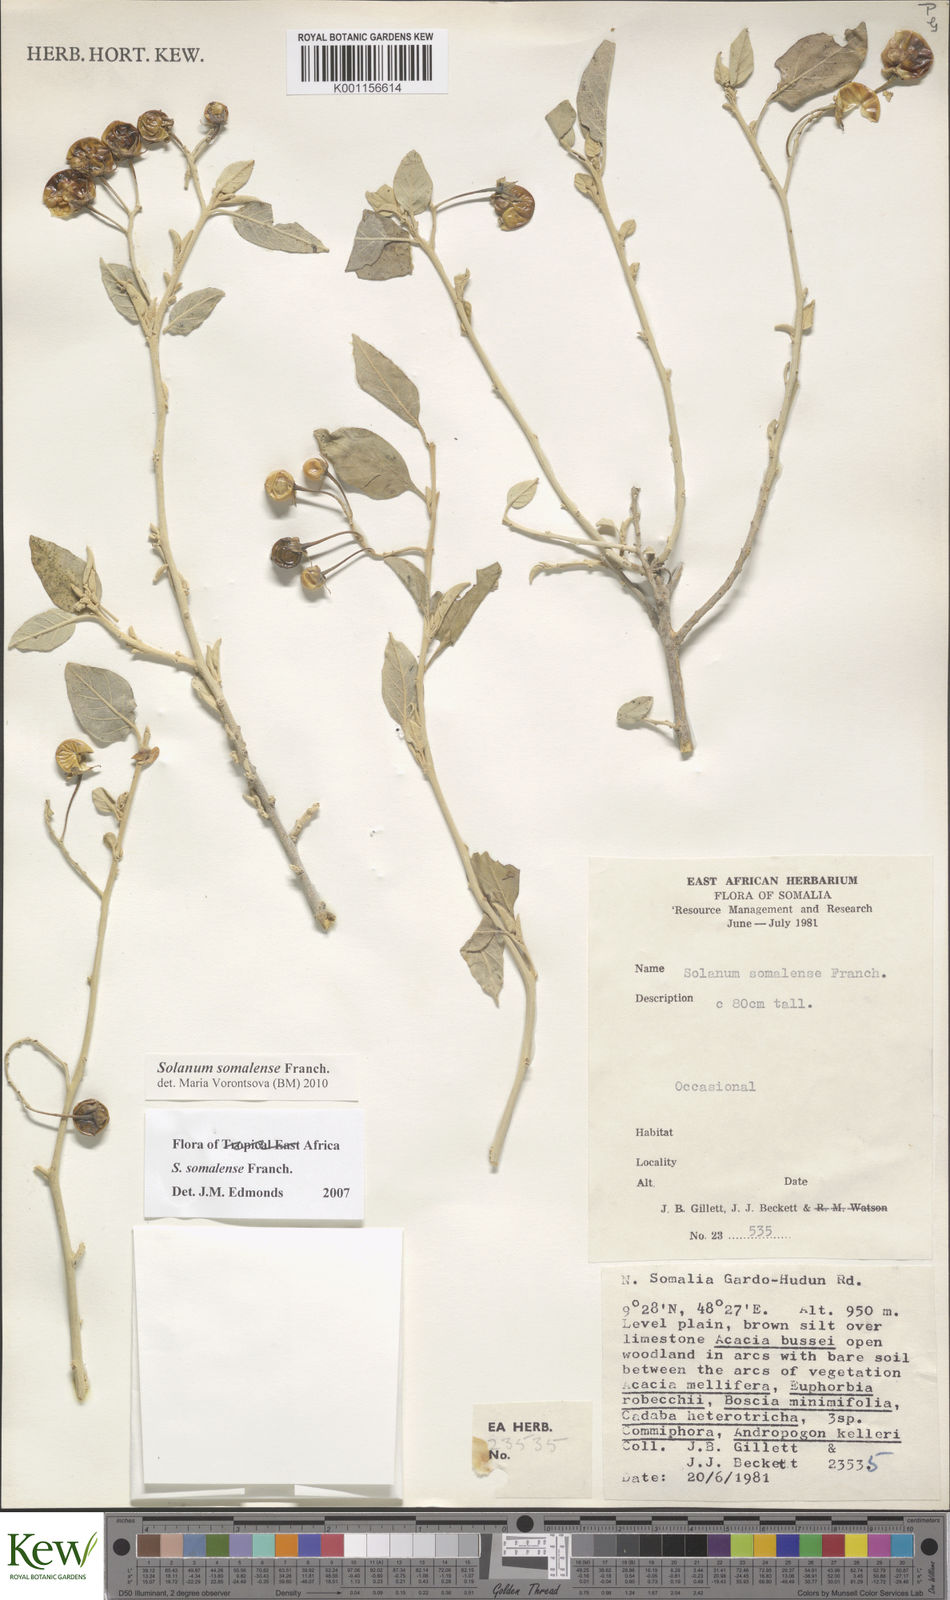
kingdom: Plantae
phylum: Tracheophyta
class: Magnoliopsida
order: Solanales
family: Solanaceae
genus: Solanum
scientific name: Solanum somalense
